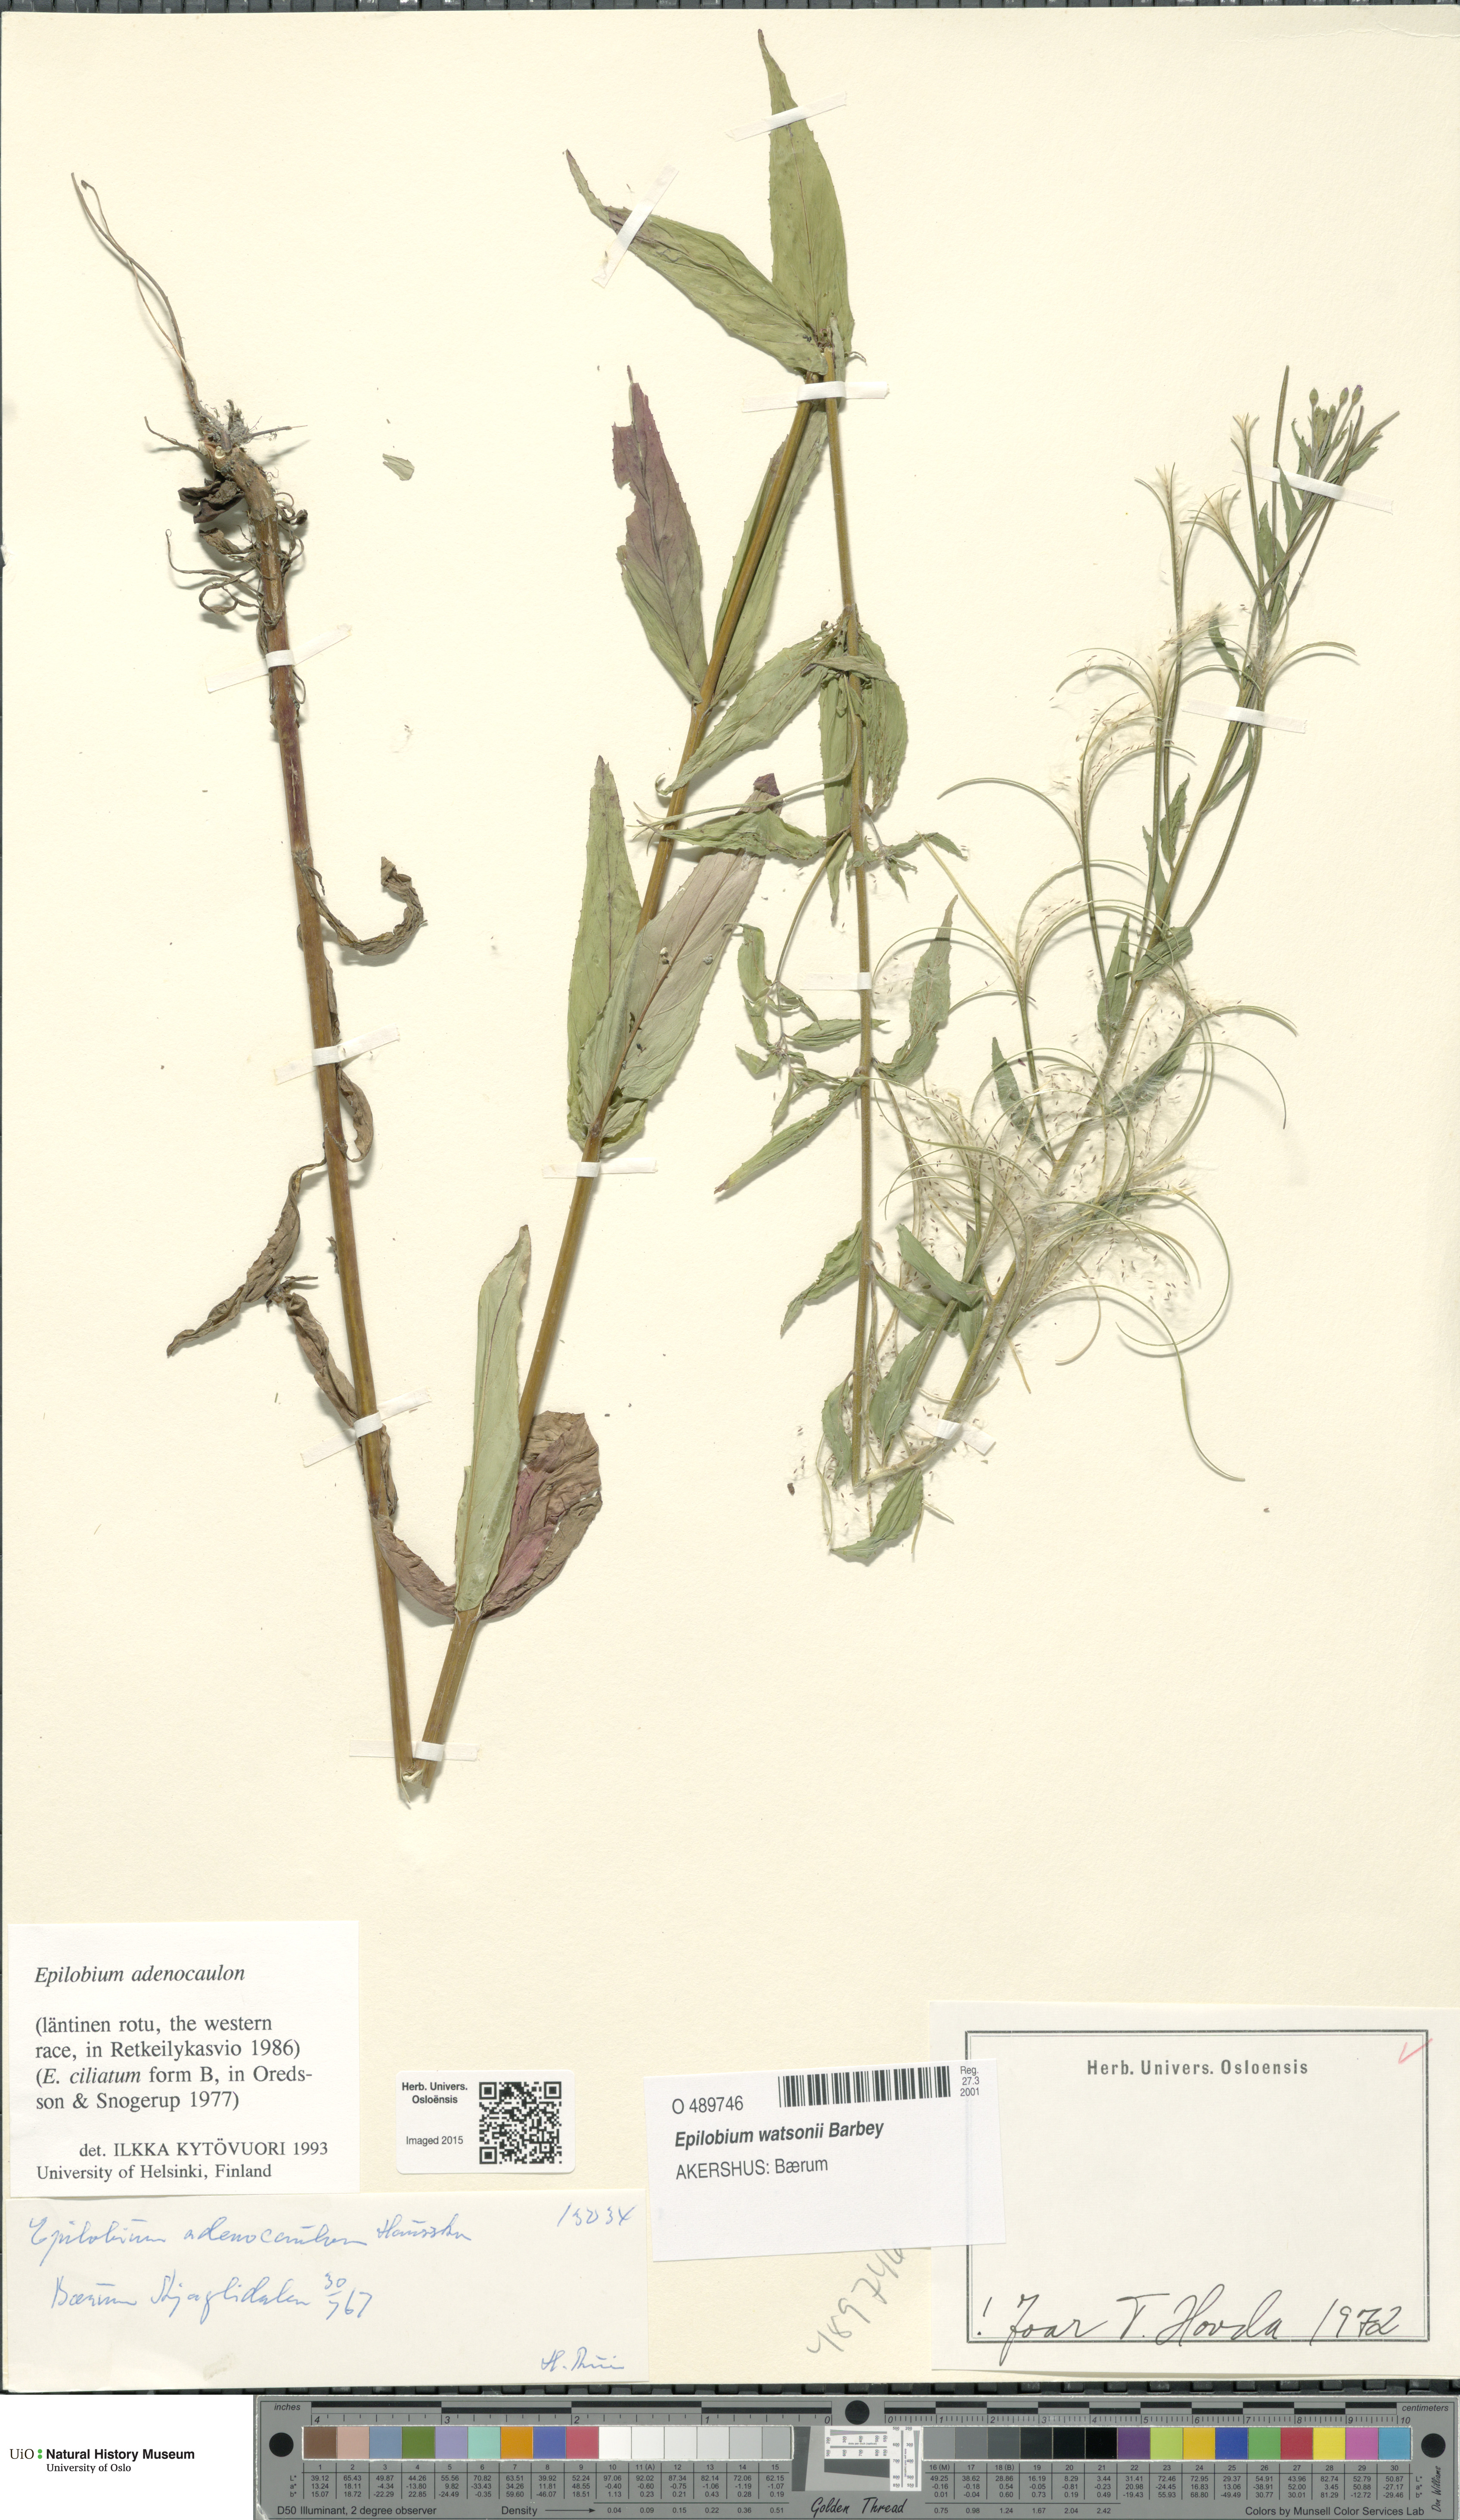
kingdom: Plantae
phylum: Tracheophyta
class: Magnoliopsida
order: Myrtales
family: Onagraceae
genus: Epilobium
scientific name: Epilobium ciliatum
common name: American willowherb
